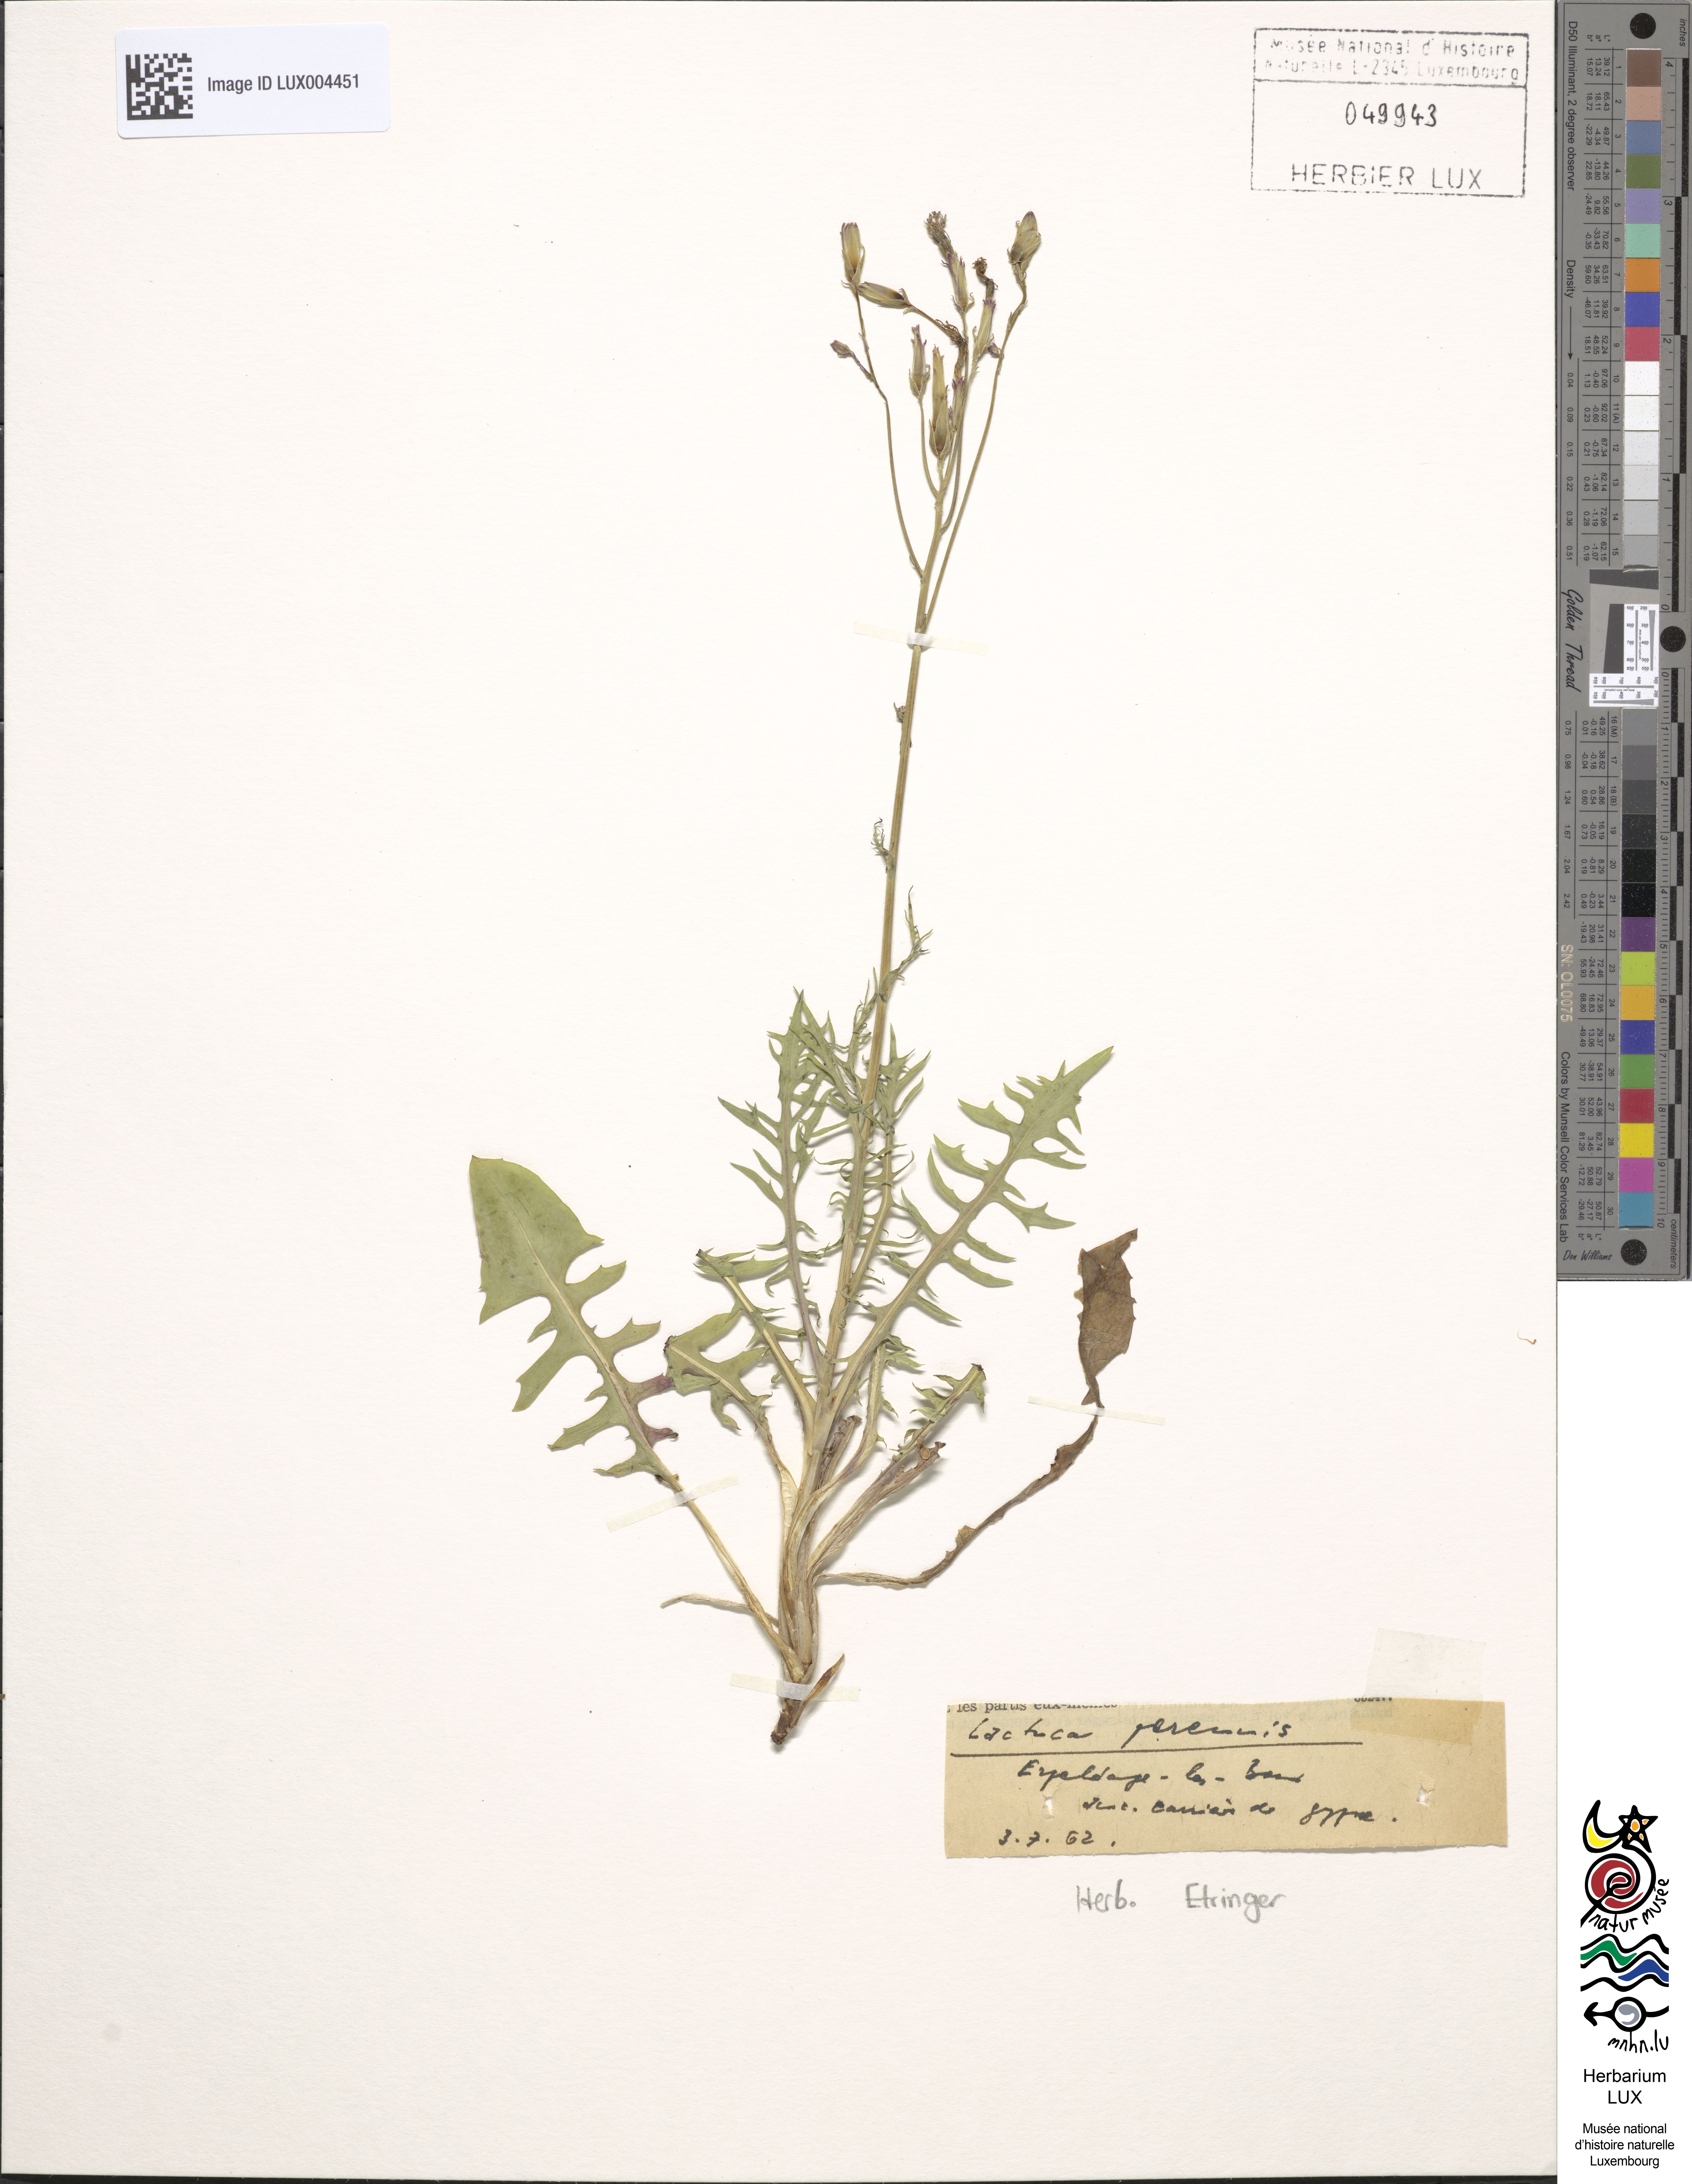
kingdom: Plantae
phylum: Tracheophyta
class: Magnoliopsida
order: Asterales
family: Asteraceae
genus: Lactuca
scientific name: Lactuca perennis
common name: Mountain lettuce
